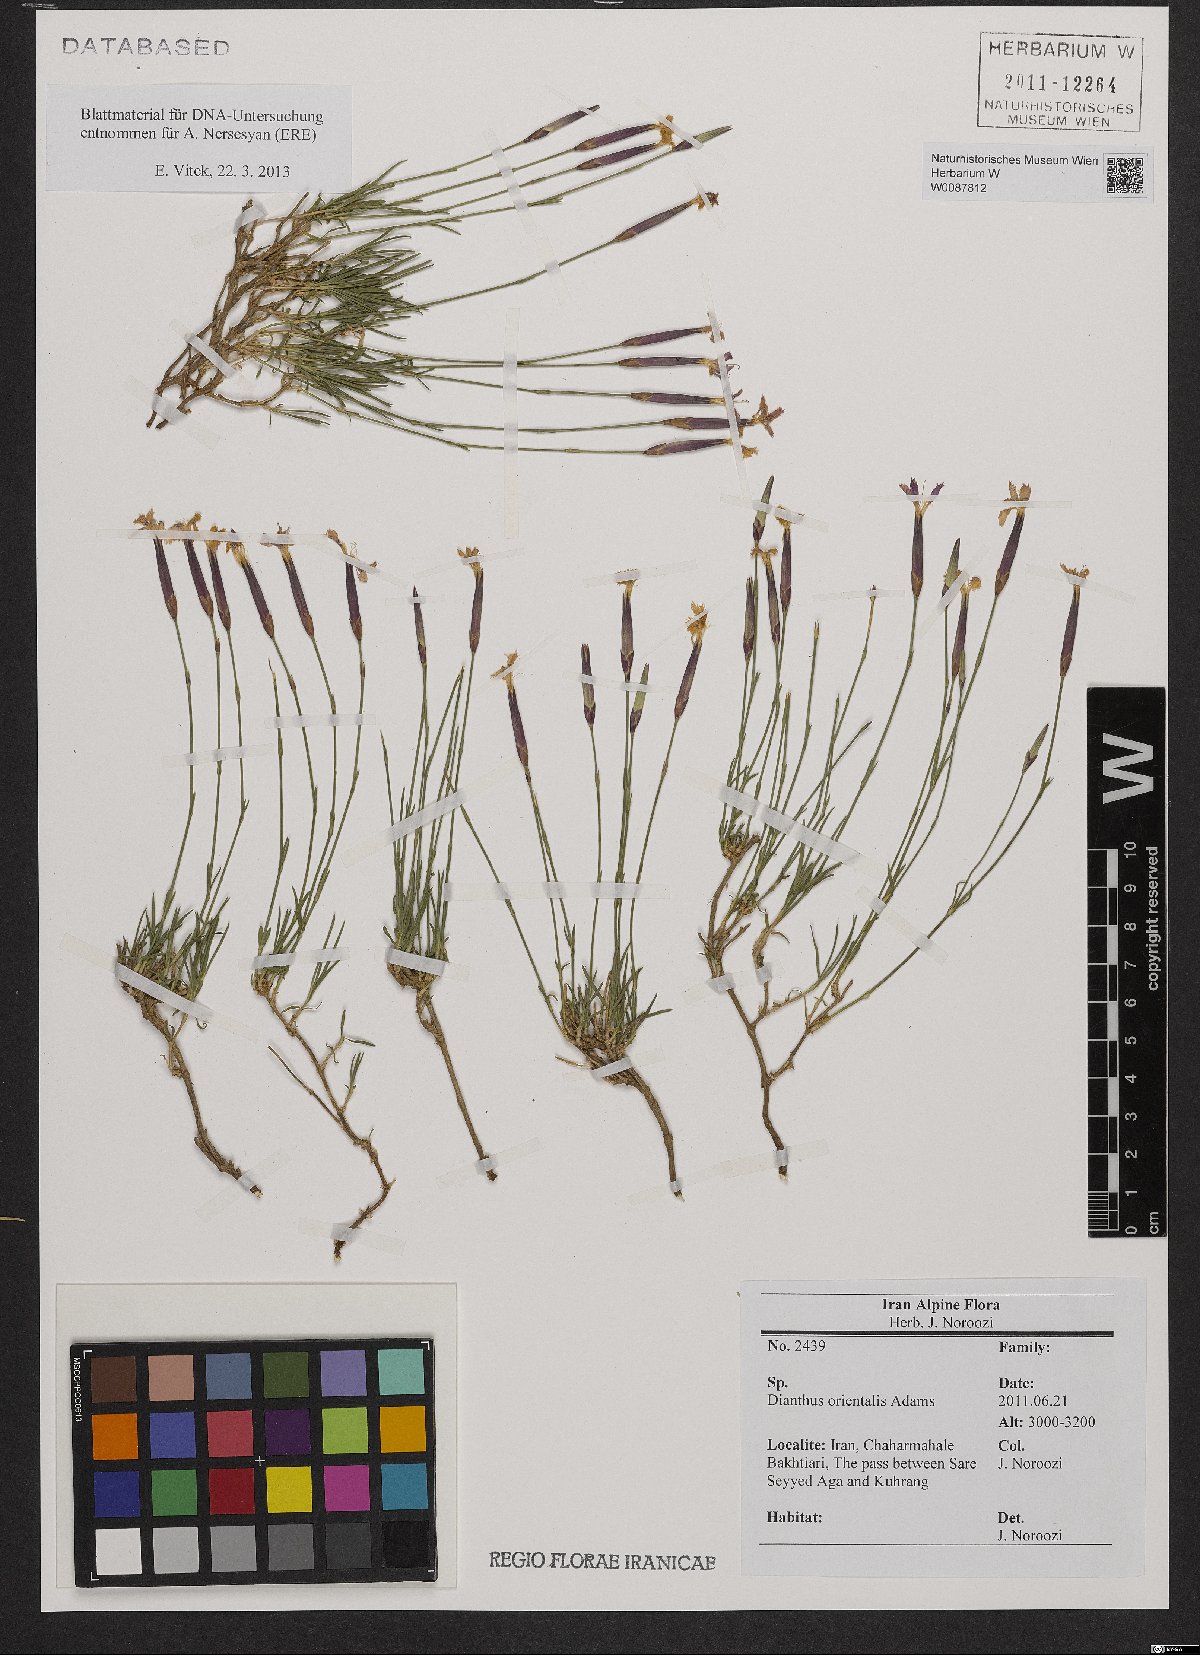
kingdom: Plantae
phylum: Tracheophyta
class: Magnoliopsida
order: Caryophyllales
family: Caryophyllaceae
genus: Dianthus
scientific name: Dianthus orientalis
